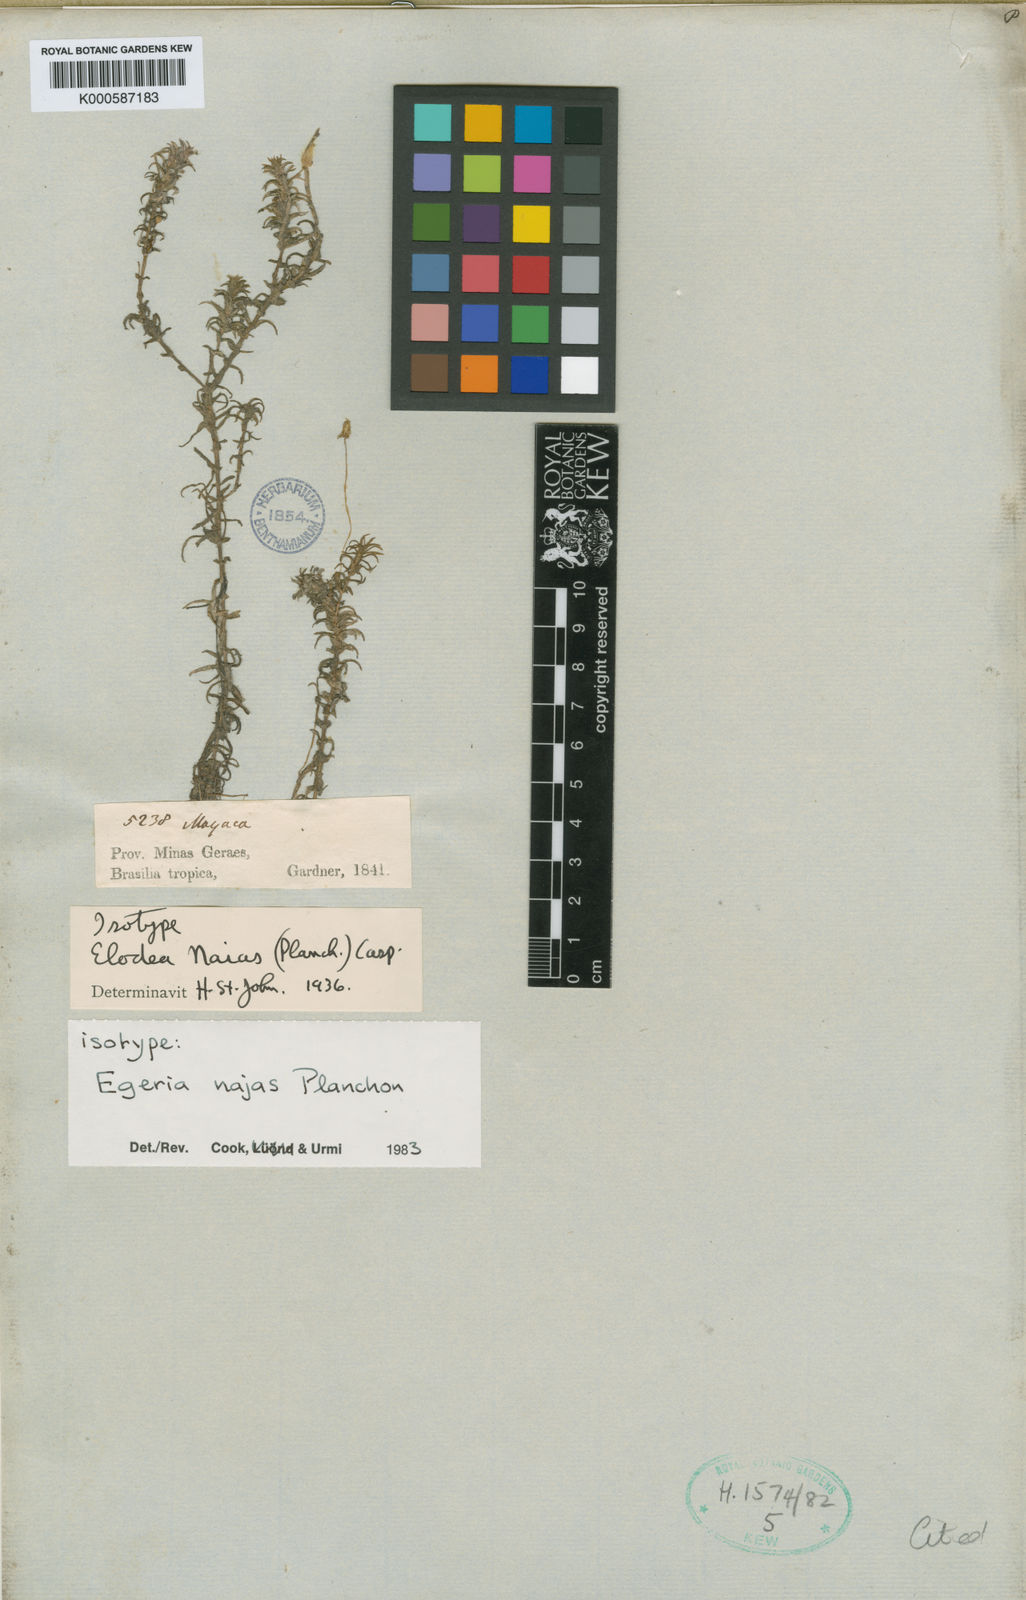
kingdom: Plantae
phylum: Tracheophyta
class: Liliopsida
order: Alismatales
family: Hydrocharitaceae
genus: Elodea
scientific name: Elodea najas
